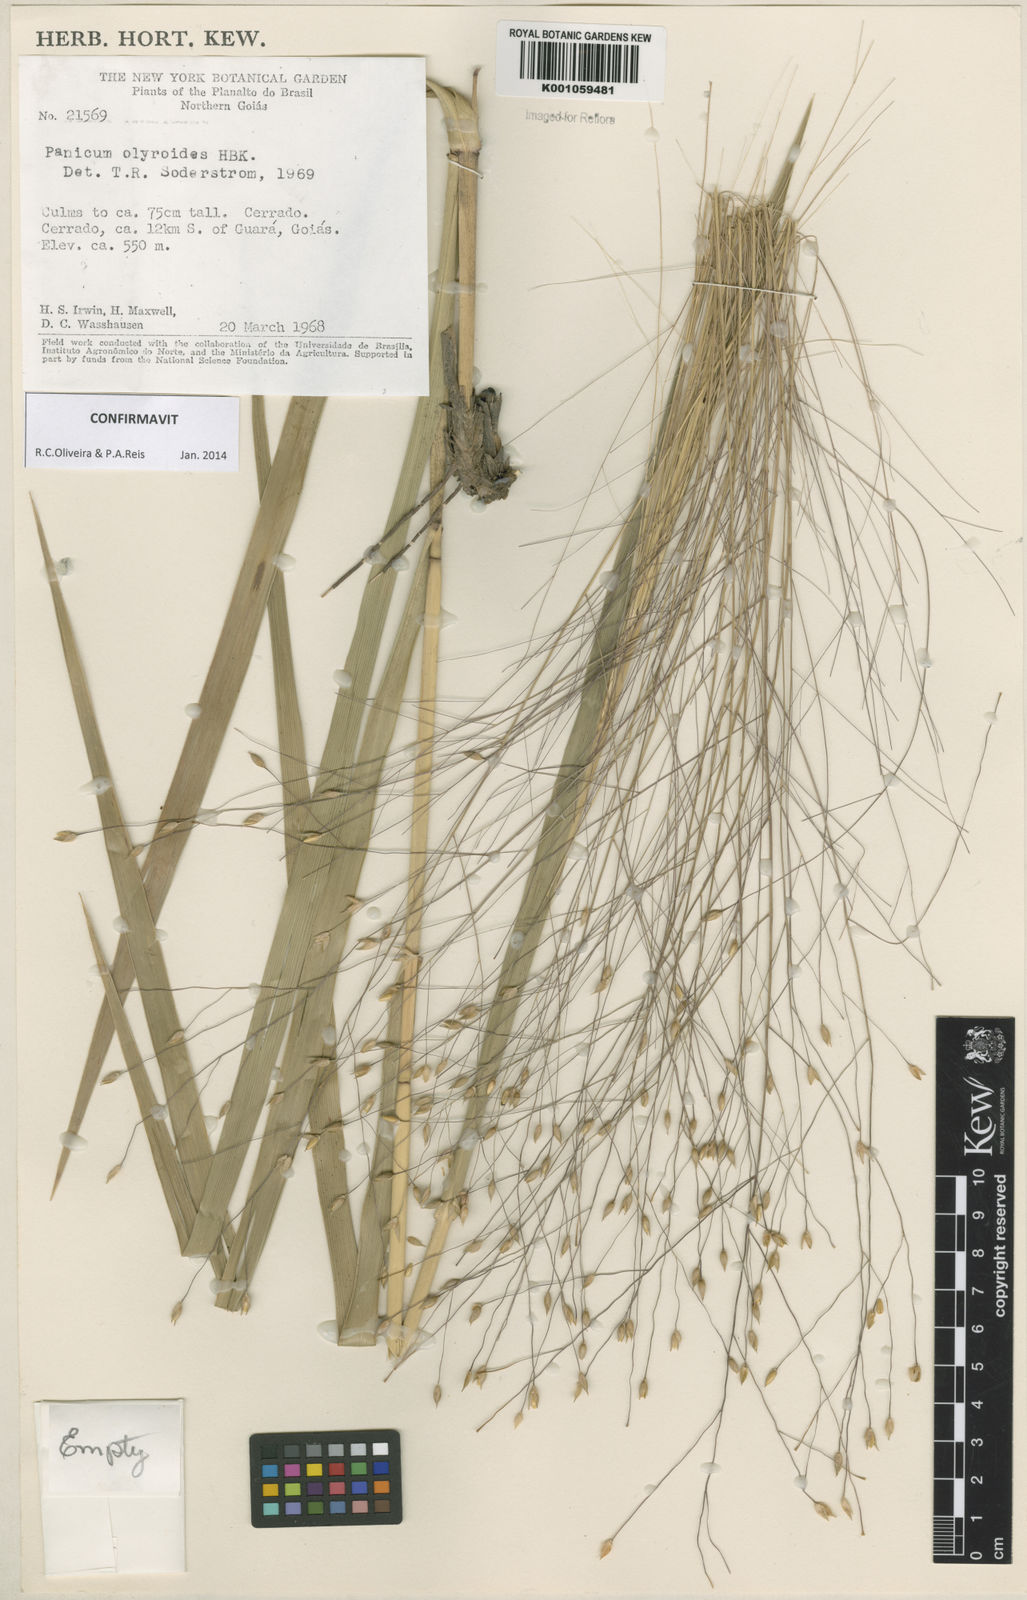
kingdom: Plantae
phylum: Tracheophyta
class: Liliopsida
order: Poales
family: Poaceae
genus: Panicum
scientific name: Panicum olyroides
